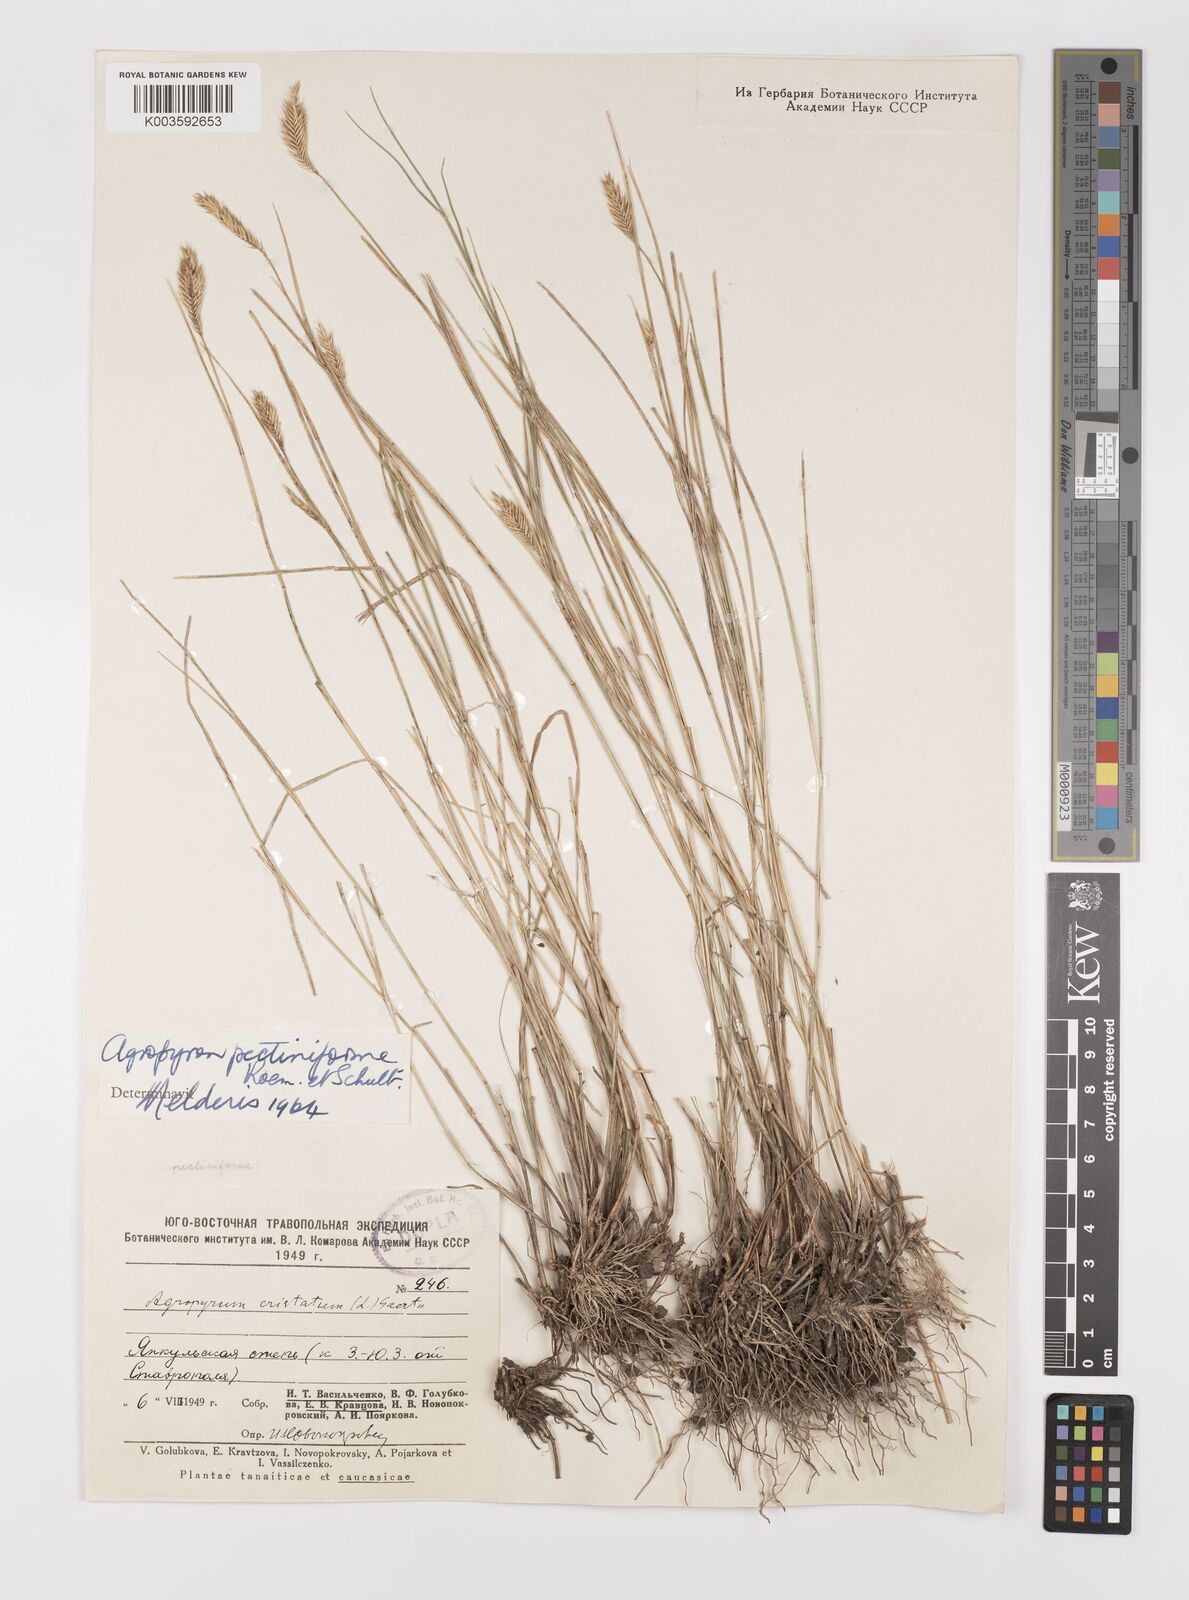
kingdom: Plantae
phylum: Tracheophyta
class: Liliopsida
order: Poales
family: Poaceae
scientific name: Poaceae
